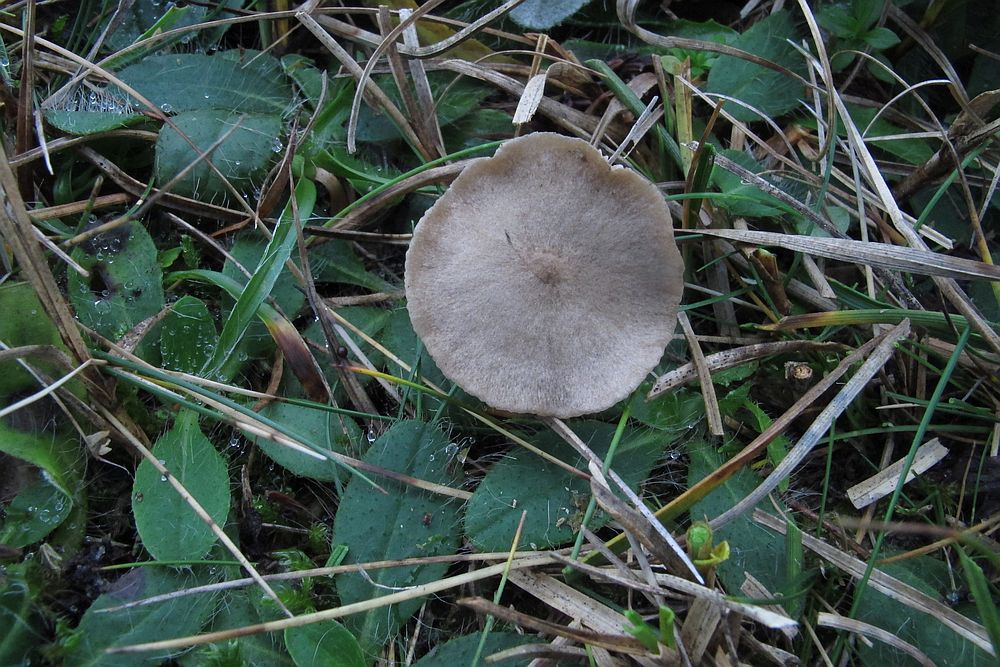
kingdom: Fungi
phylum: Basidiomycota
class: Agaricomycetes
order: Agaricales
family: Entolomataceae
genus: Entoloma
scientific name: Entoloma ortonii
